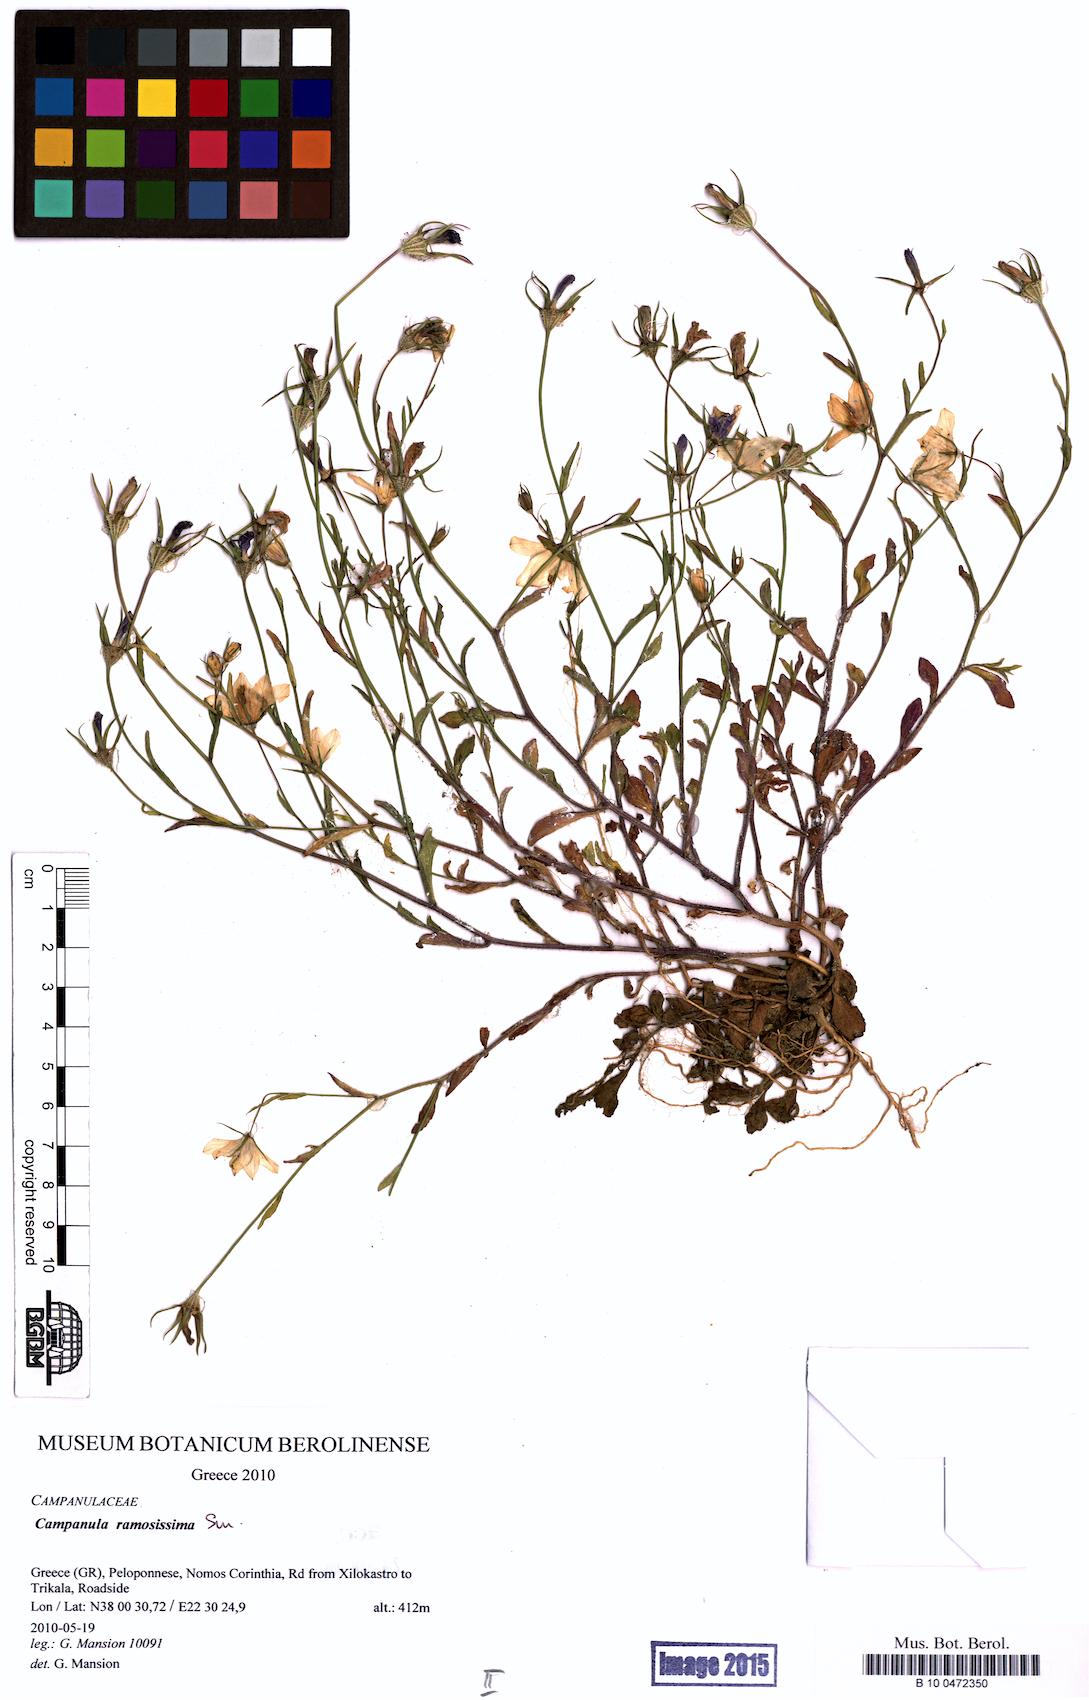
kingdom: Plantae
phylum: Tracheophyta
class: Magnoliopsida
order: Asterales
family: Campanulaceae
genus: Campanula
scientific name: Campanula ramosissima
